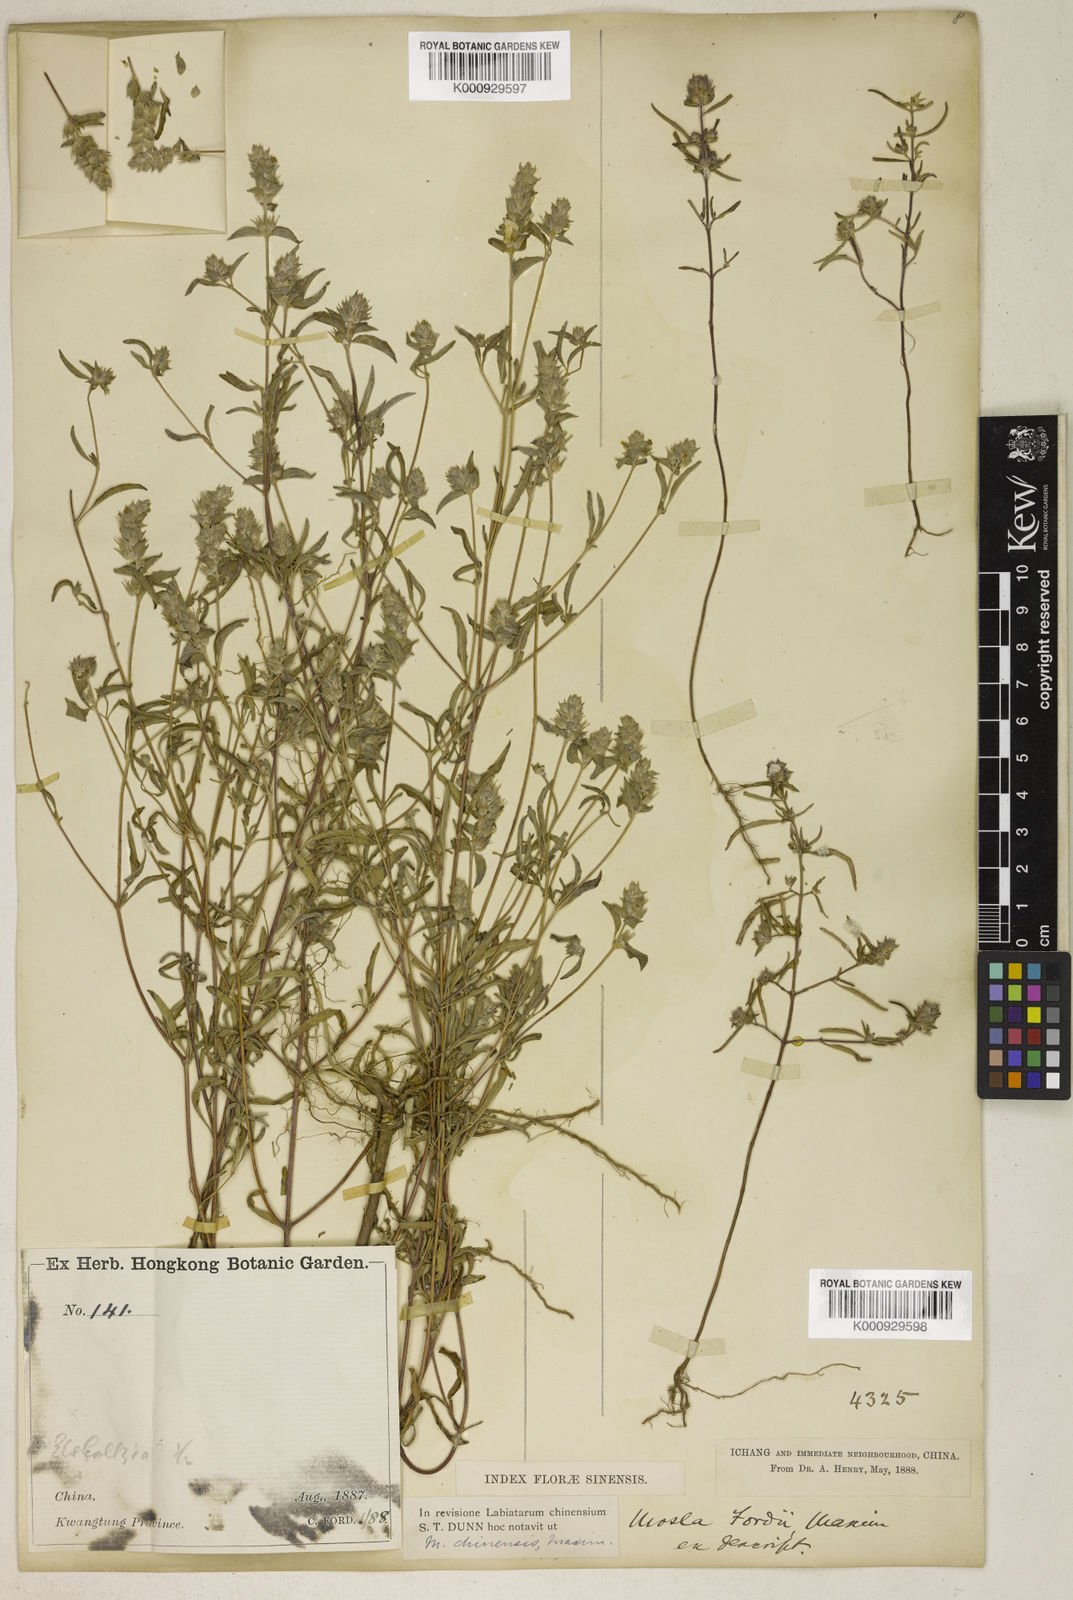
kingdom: Plantae
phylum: Tracheophyta
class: Magnoliopsida
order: Lamiales
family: Lamiaceae
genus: Mosla
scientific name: Mosla chinensis
